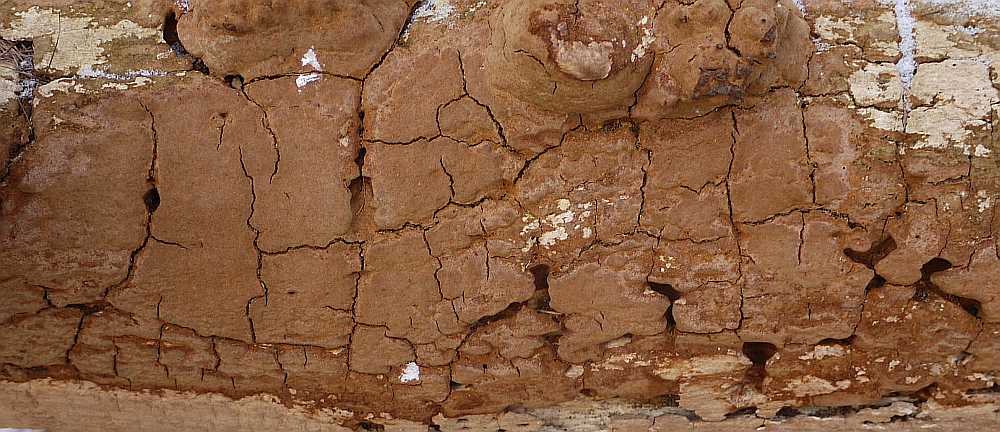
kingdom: Fungi
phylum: Basidiomycota
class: Agaricomycetes
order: Hymenochaetales
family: Hymenochaetaceae
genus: Fuscoporia
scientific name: Fuscoporia ferruginosa
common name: rustbrun ildporesvamp
